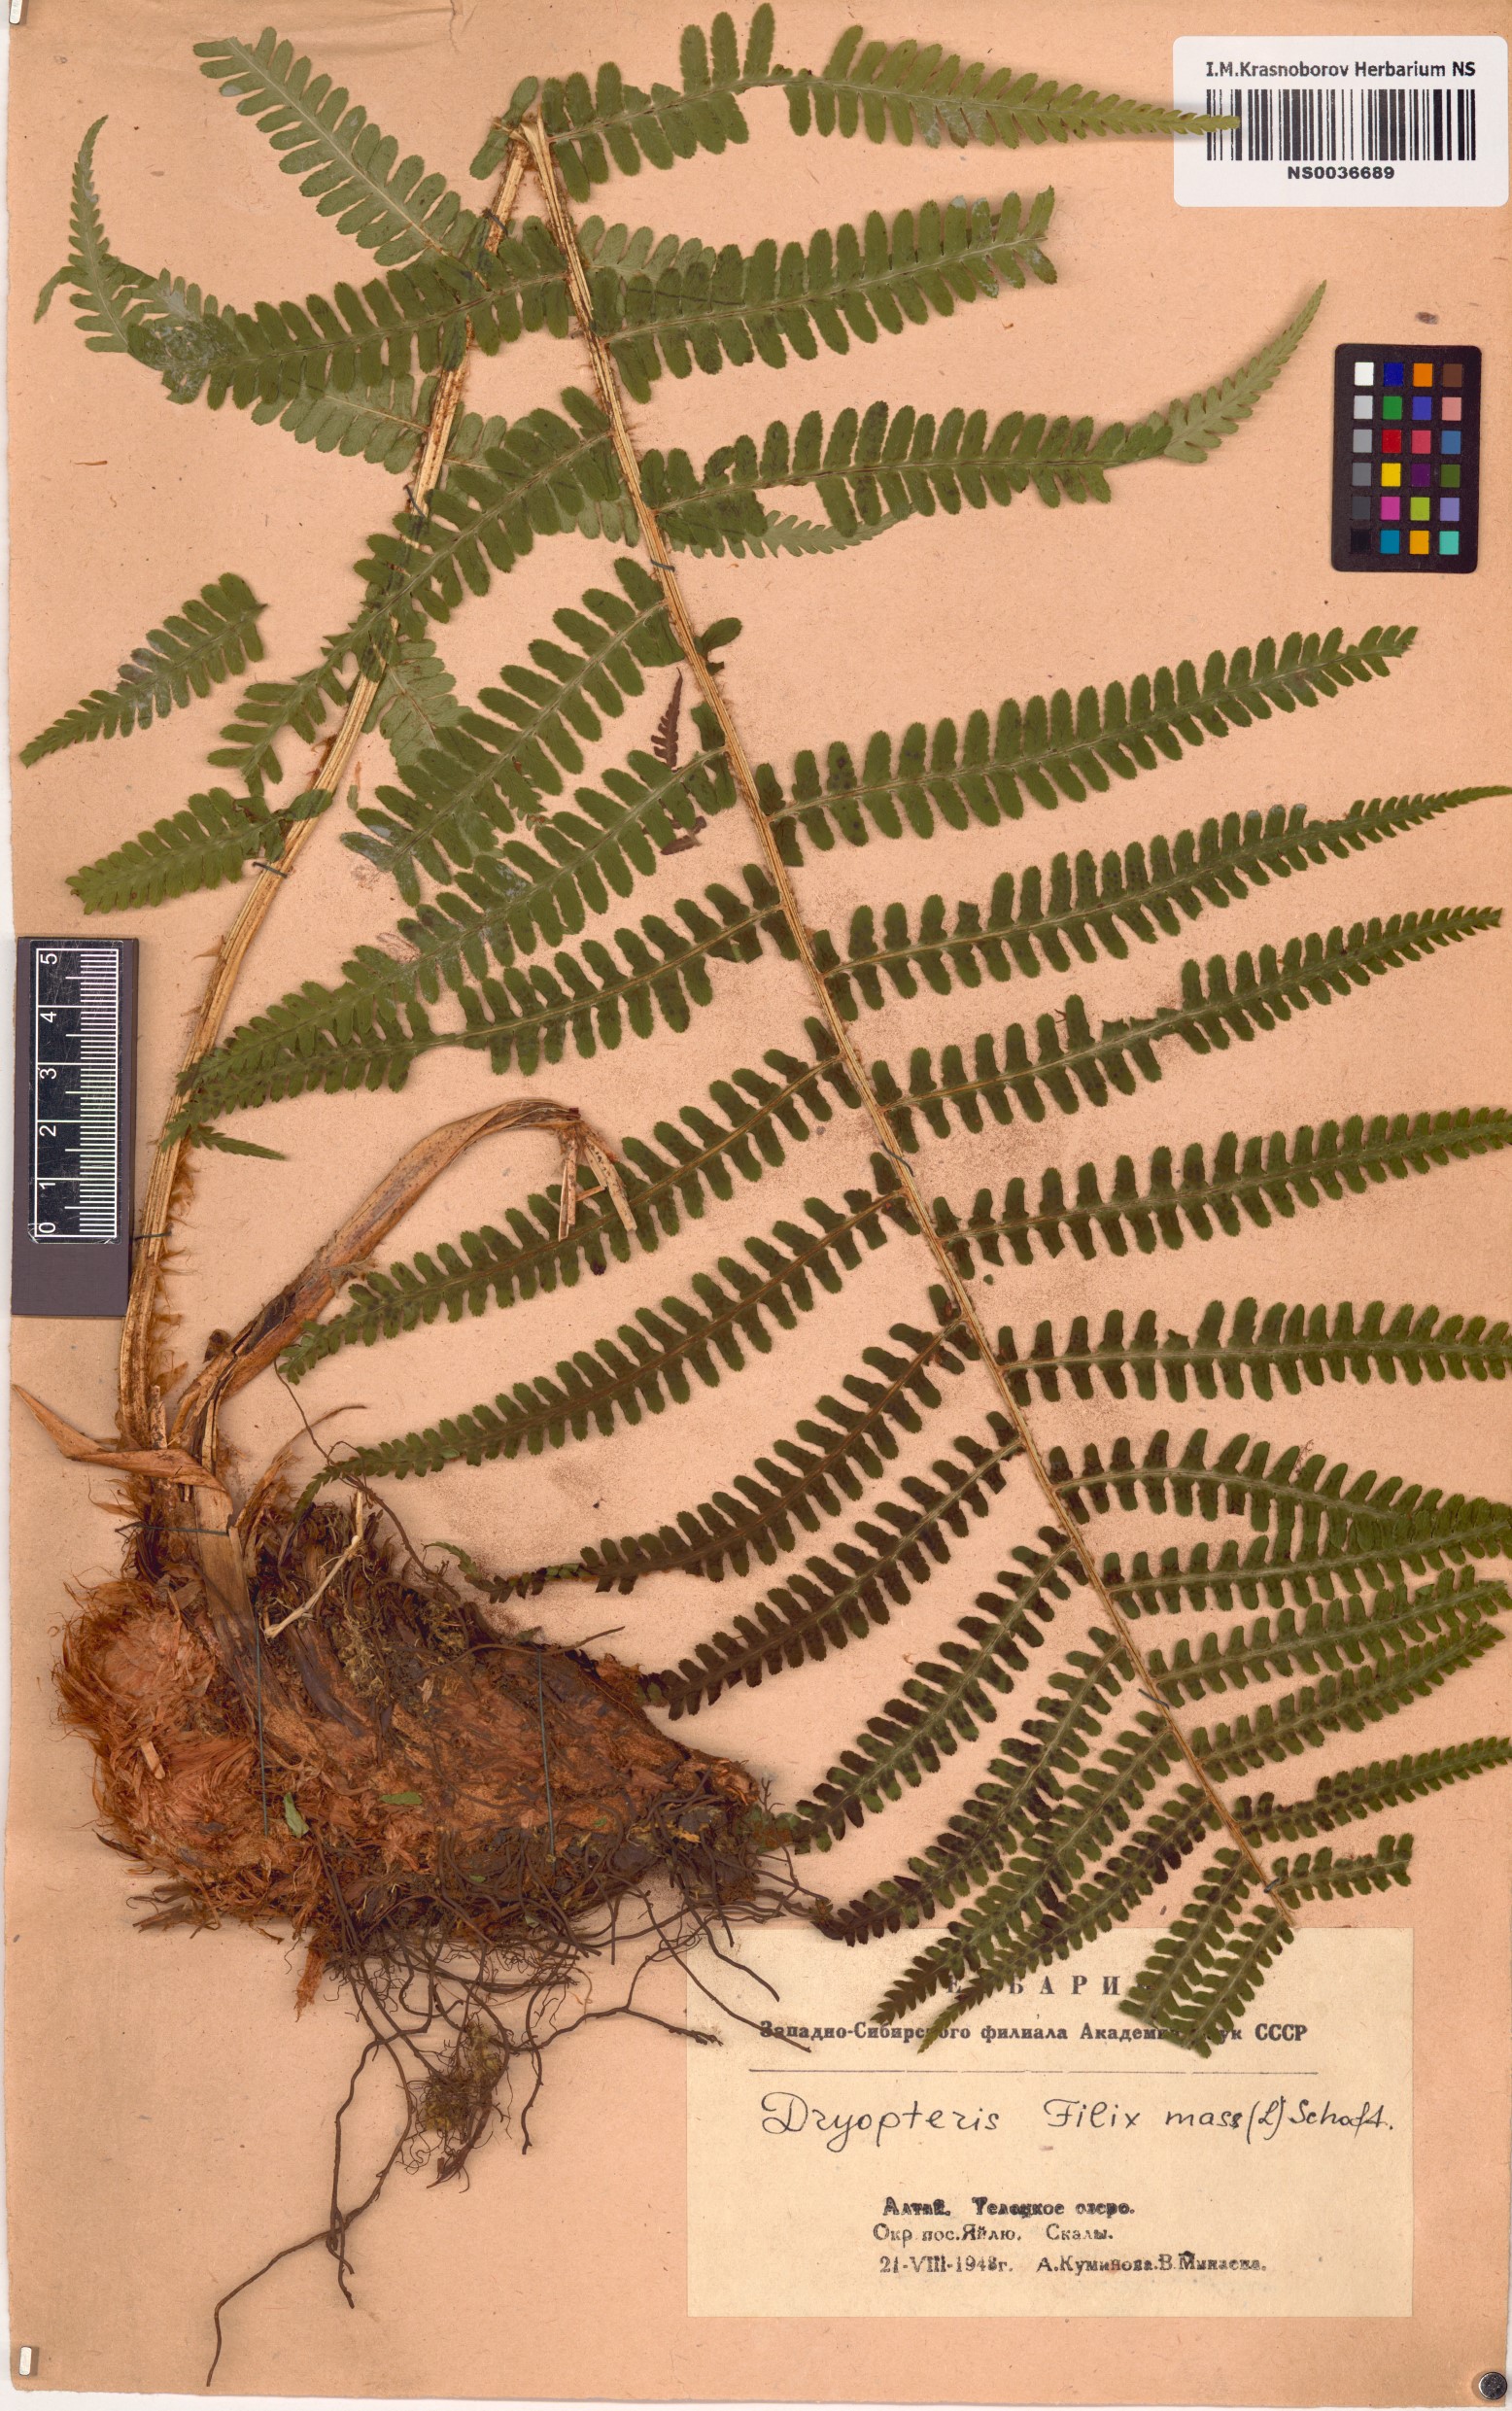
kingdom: Plantae
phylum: Tracheophyta
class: Polypodiopsida
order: Polypodiales
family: Dryopteridaceae
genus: Dryopteris
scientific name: Dryopteris filix-mas
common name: Male fern
